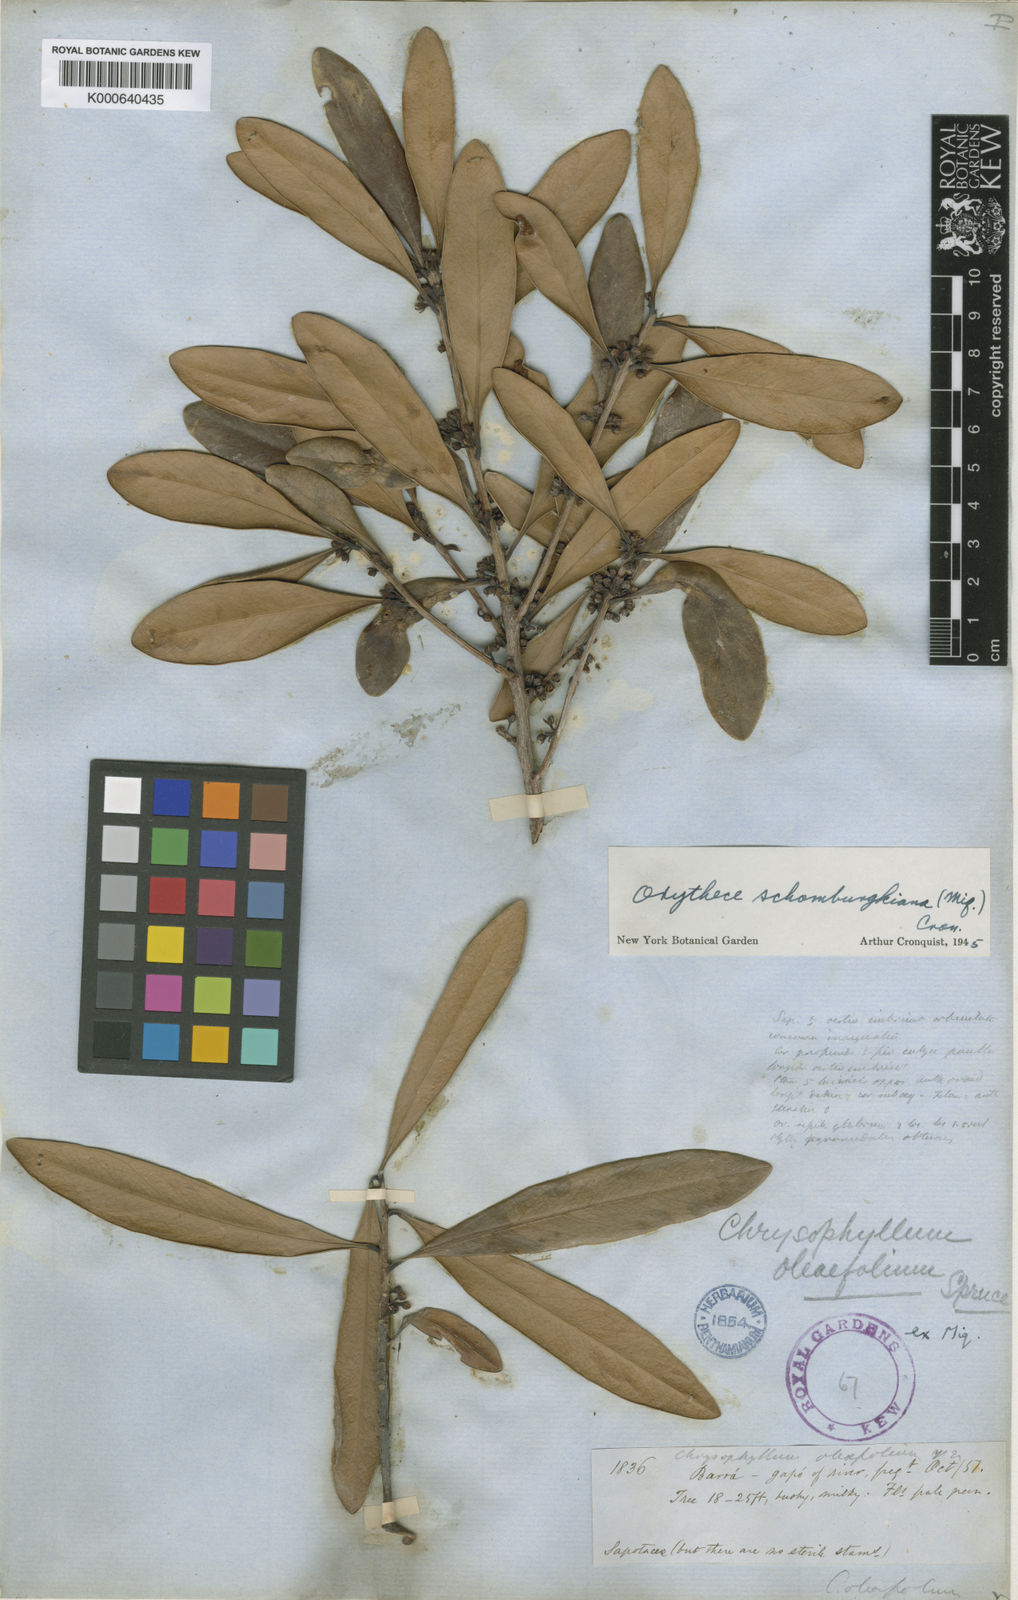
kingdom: Plantae
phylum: Tracheophyta
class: Magnoliopsida
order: Ericales
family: Sapotaceae
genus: Elaeoluma
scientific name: Elaeoluma schomburgkiana
